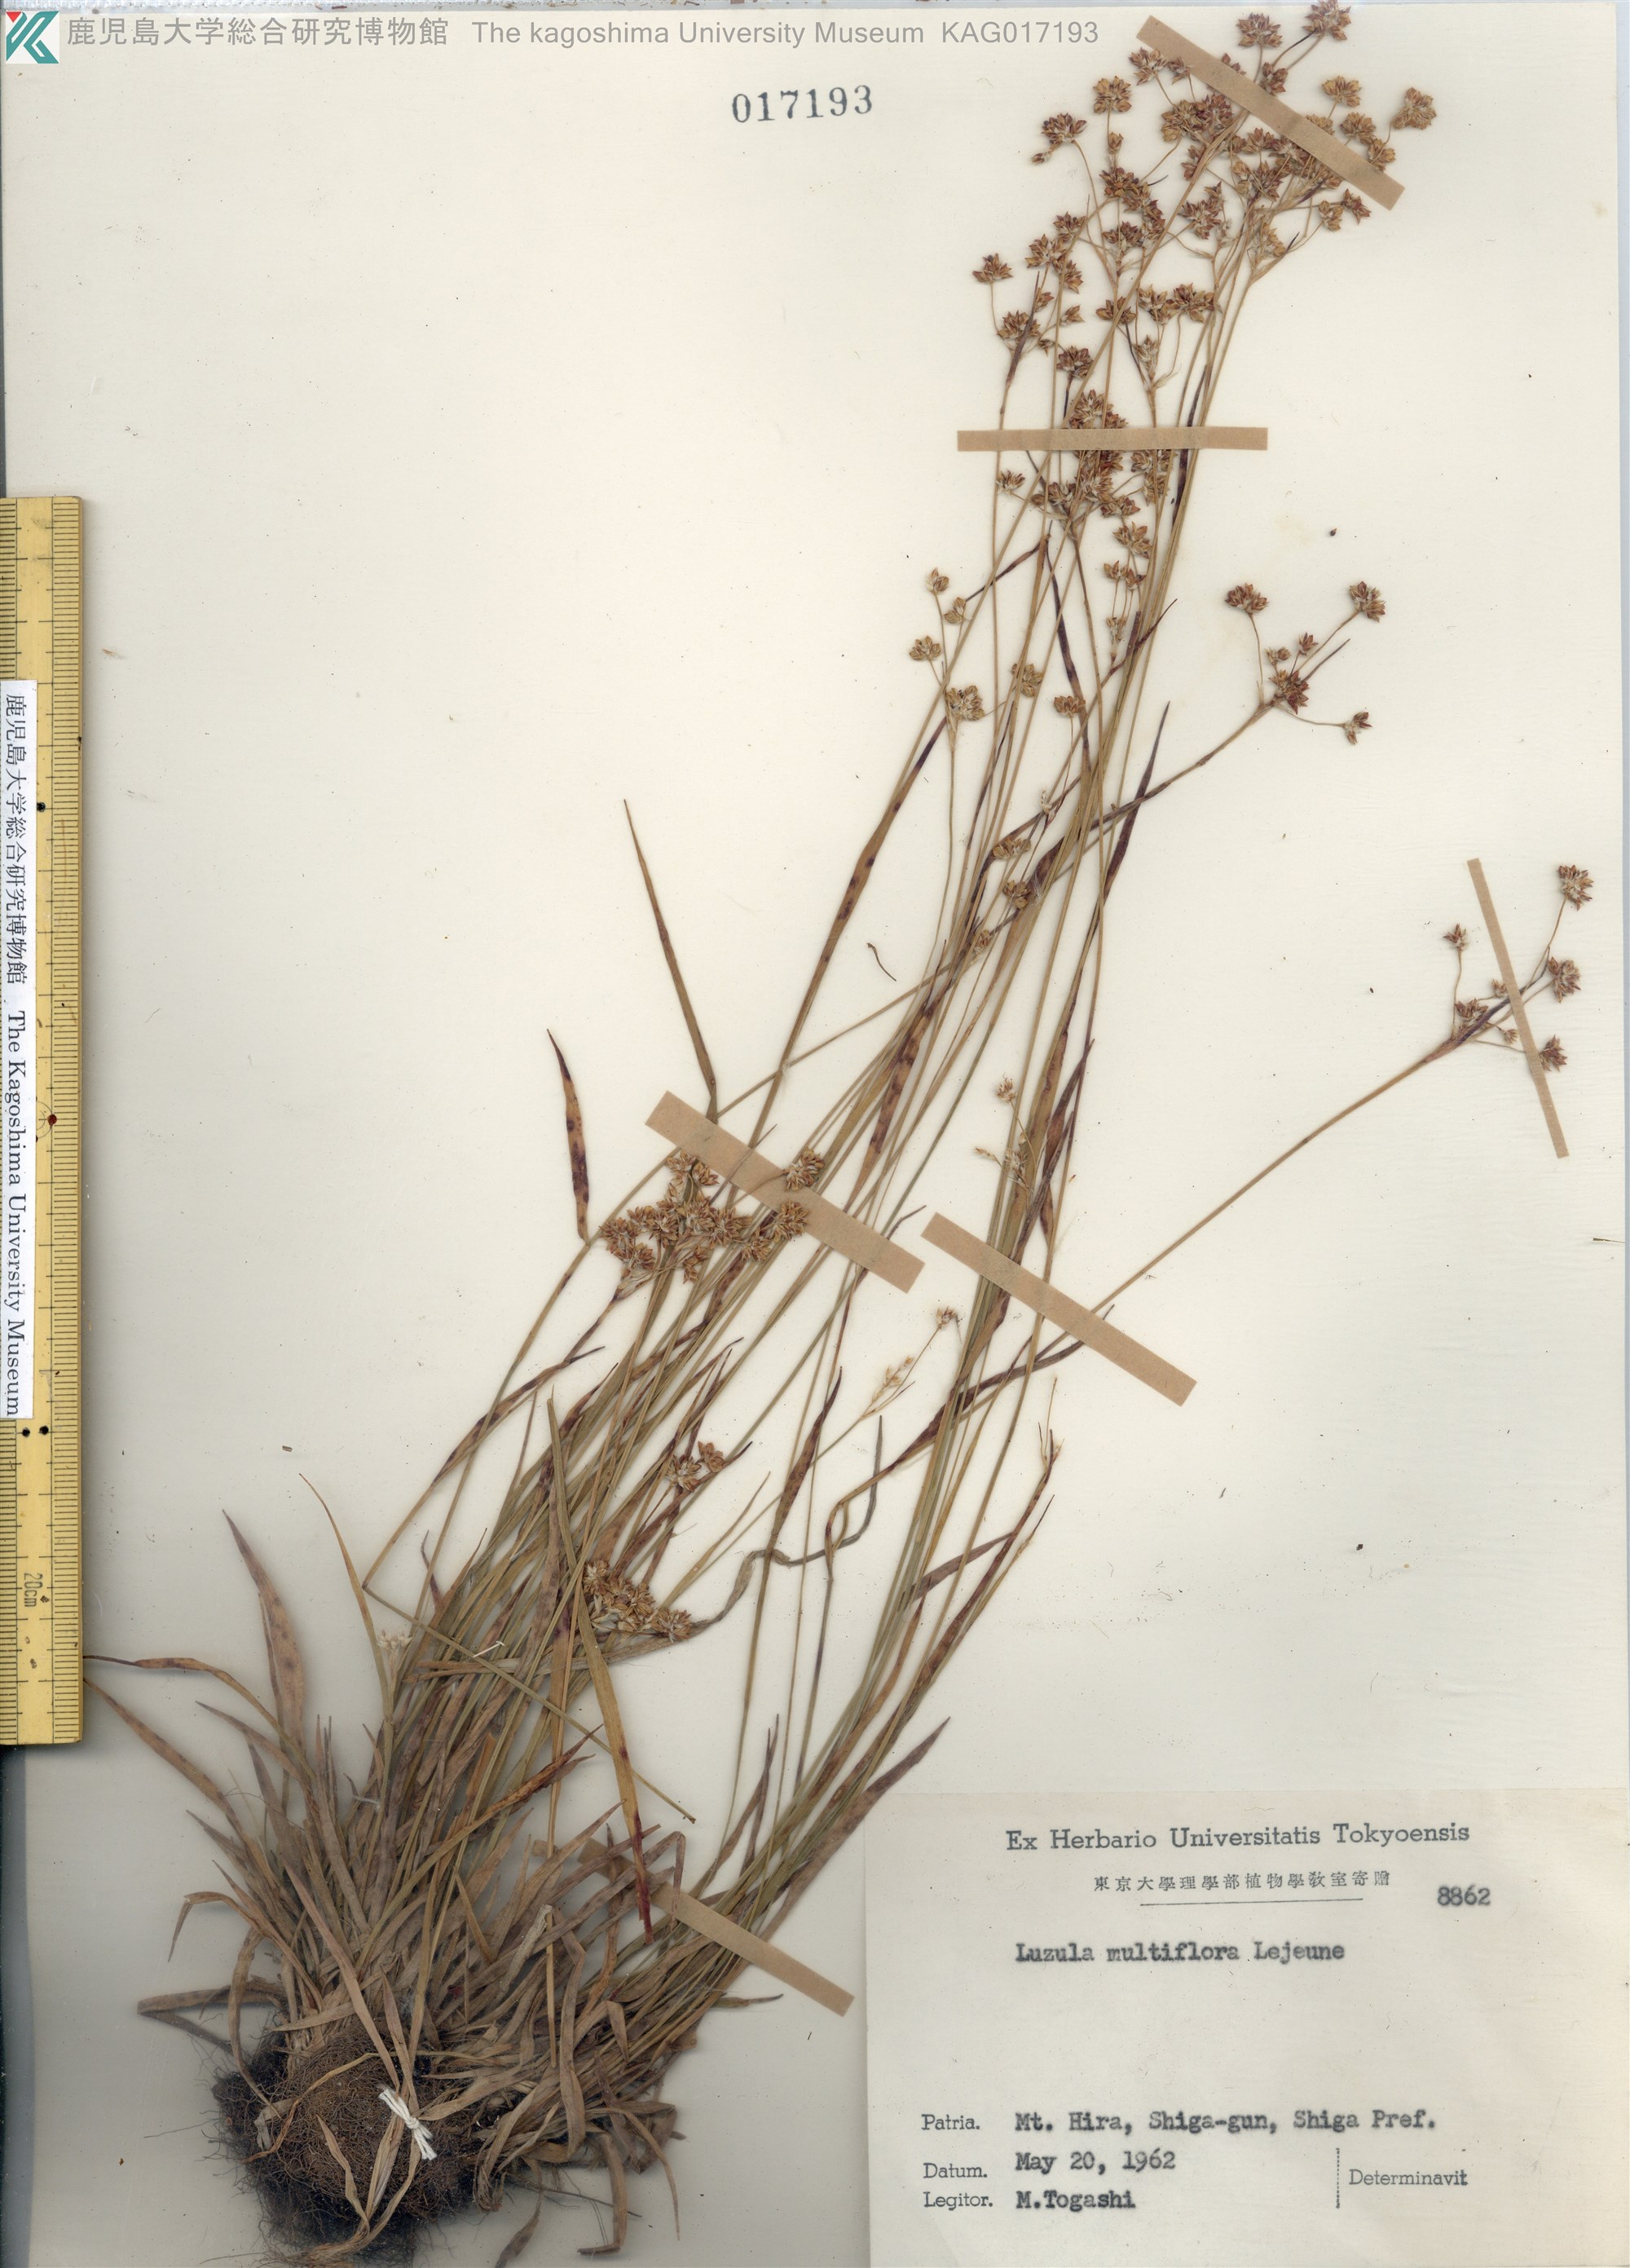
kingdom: Plantae
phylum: Tracheophyta
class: Liliopsida
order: Poales
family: Juncaceae
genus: Luzula
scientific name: Luzula multiflora
